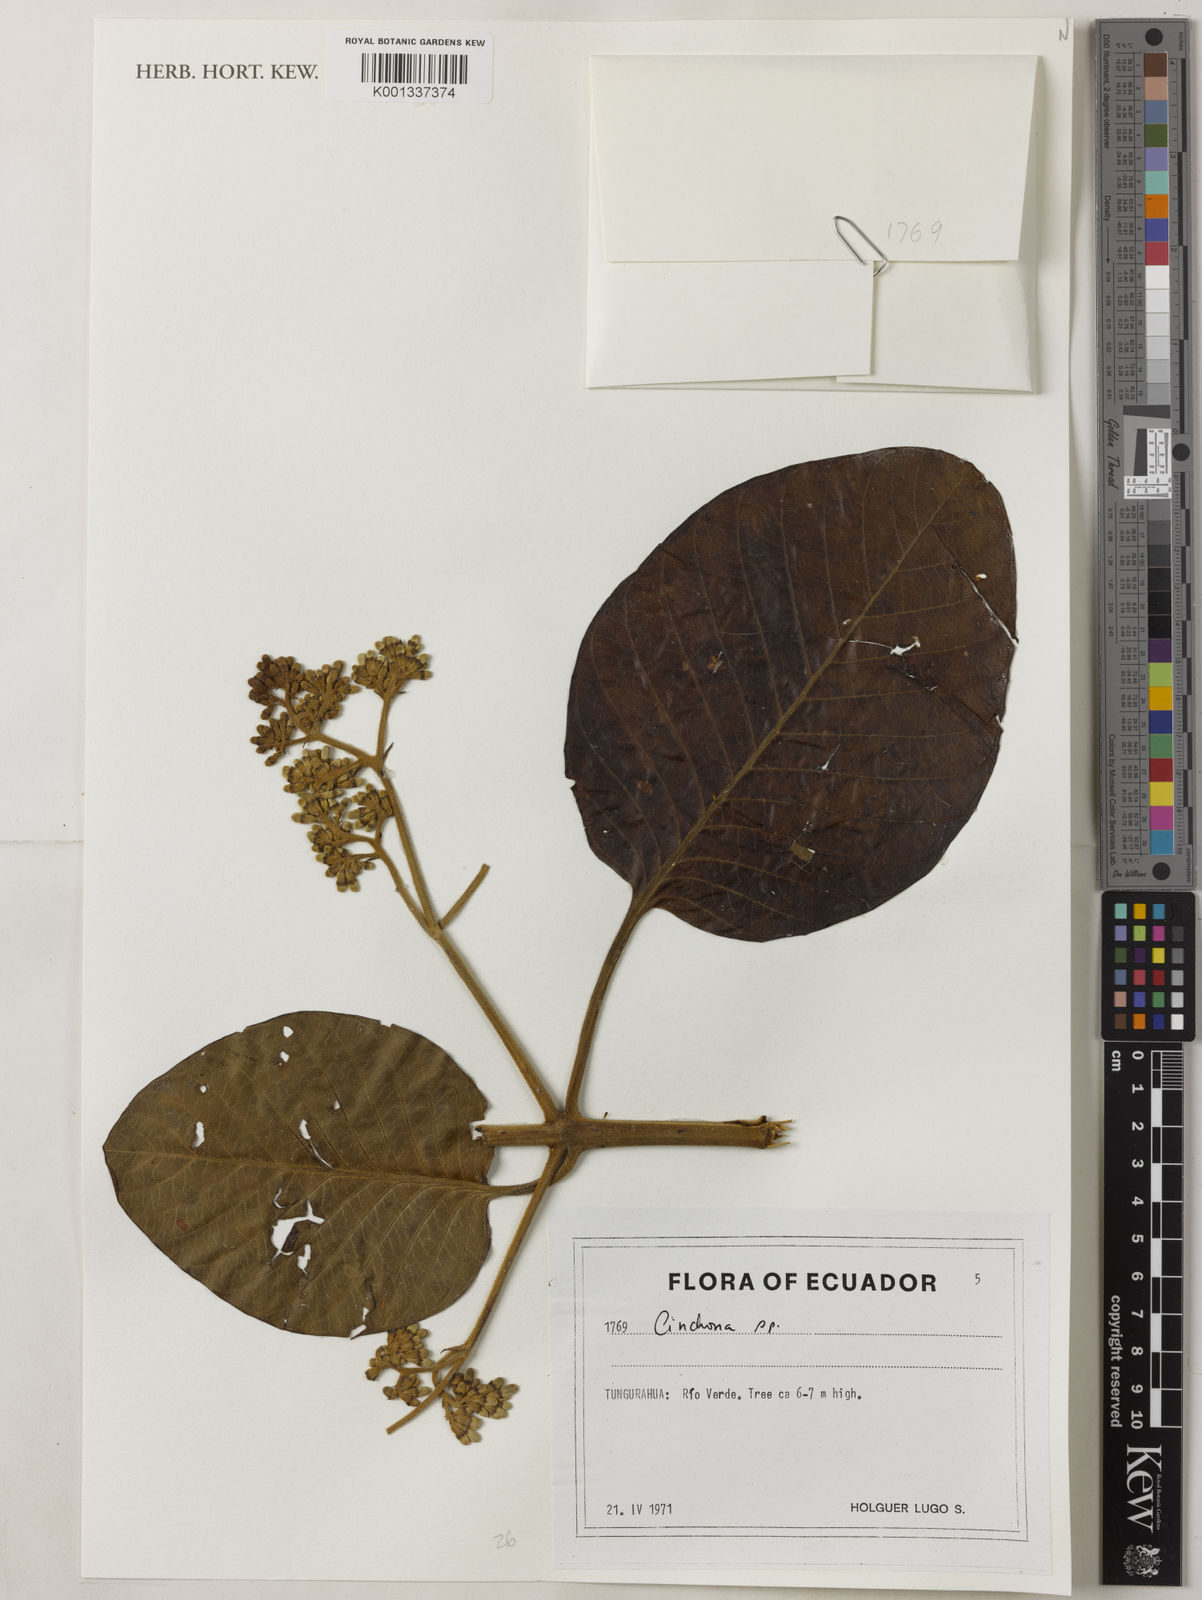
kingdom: Plantae
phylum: Tracheophyta
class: Magnoliopsida
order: Gentianales
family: Rubiaceae
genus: Cinchona
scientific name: Cinchona
